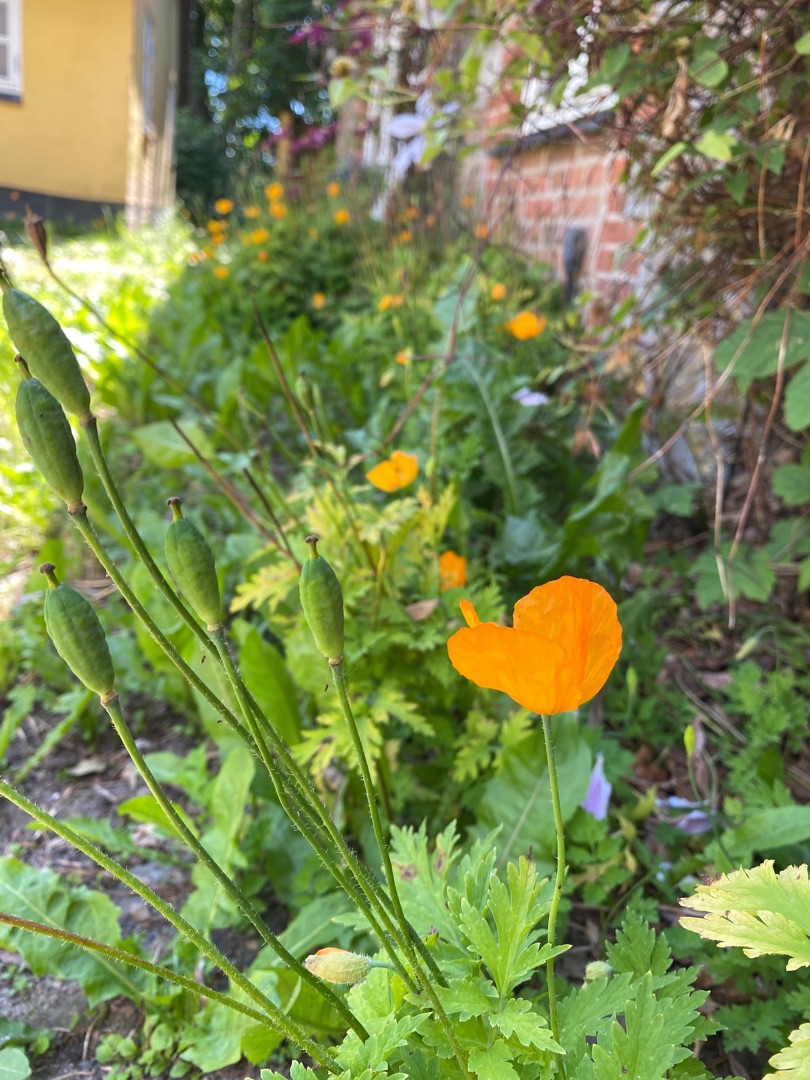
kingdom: Plantae
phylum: Tracheophyta
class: Magnoliopsida
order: Ranunculales
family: Papaveraceae
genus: Papaver
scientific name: Papaver cambricum
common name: Skov-valmue
